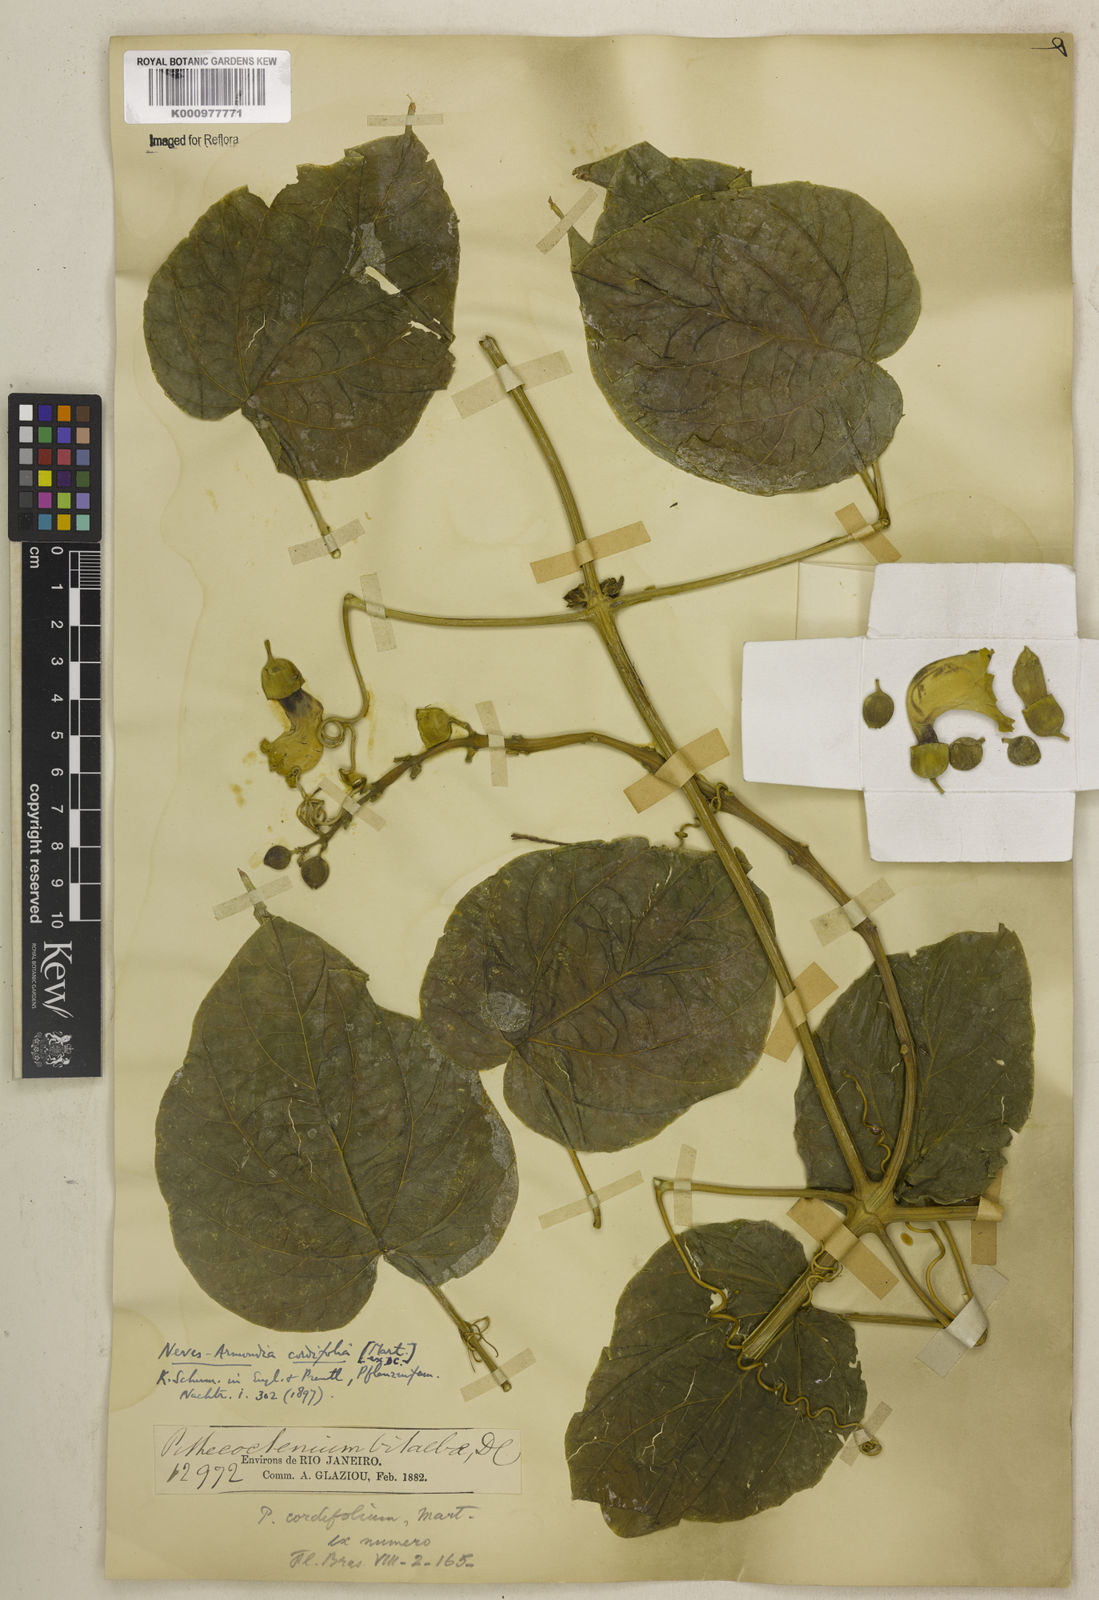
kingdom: Plantae
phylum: Tracheophyta
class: Magnoliopsida
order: Lamiales
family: Bignoniaceae
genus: Amphilophium
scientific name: Amphilophium crucigerum
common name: Monkey comb
